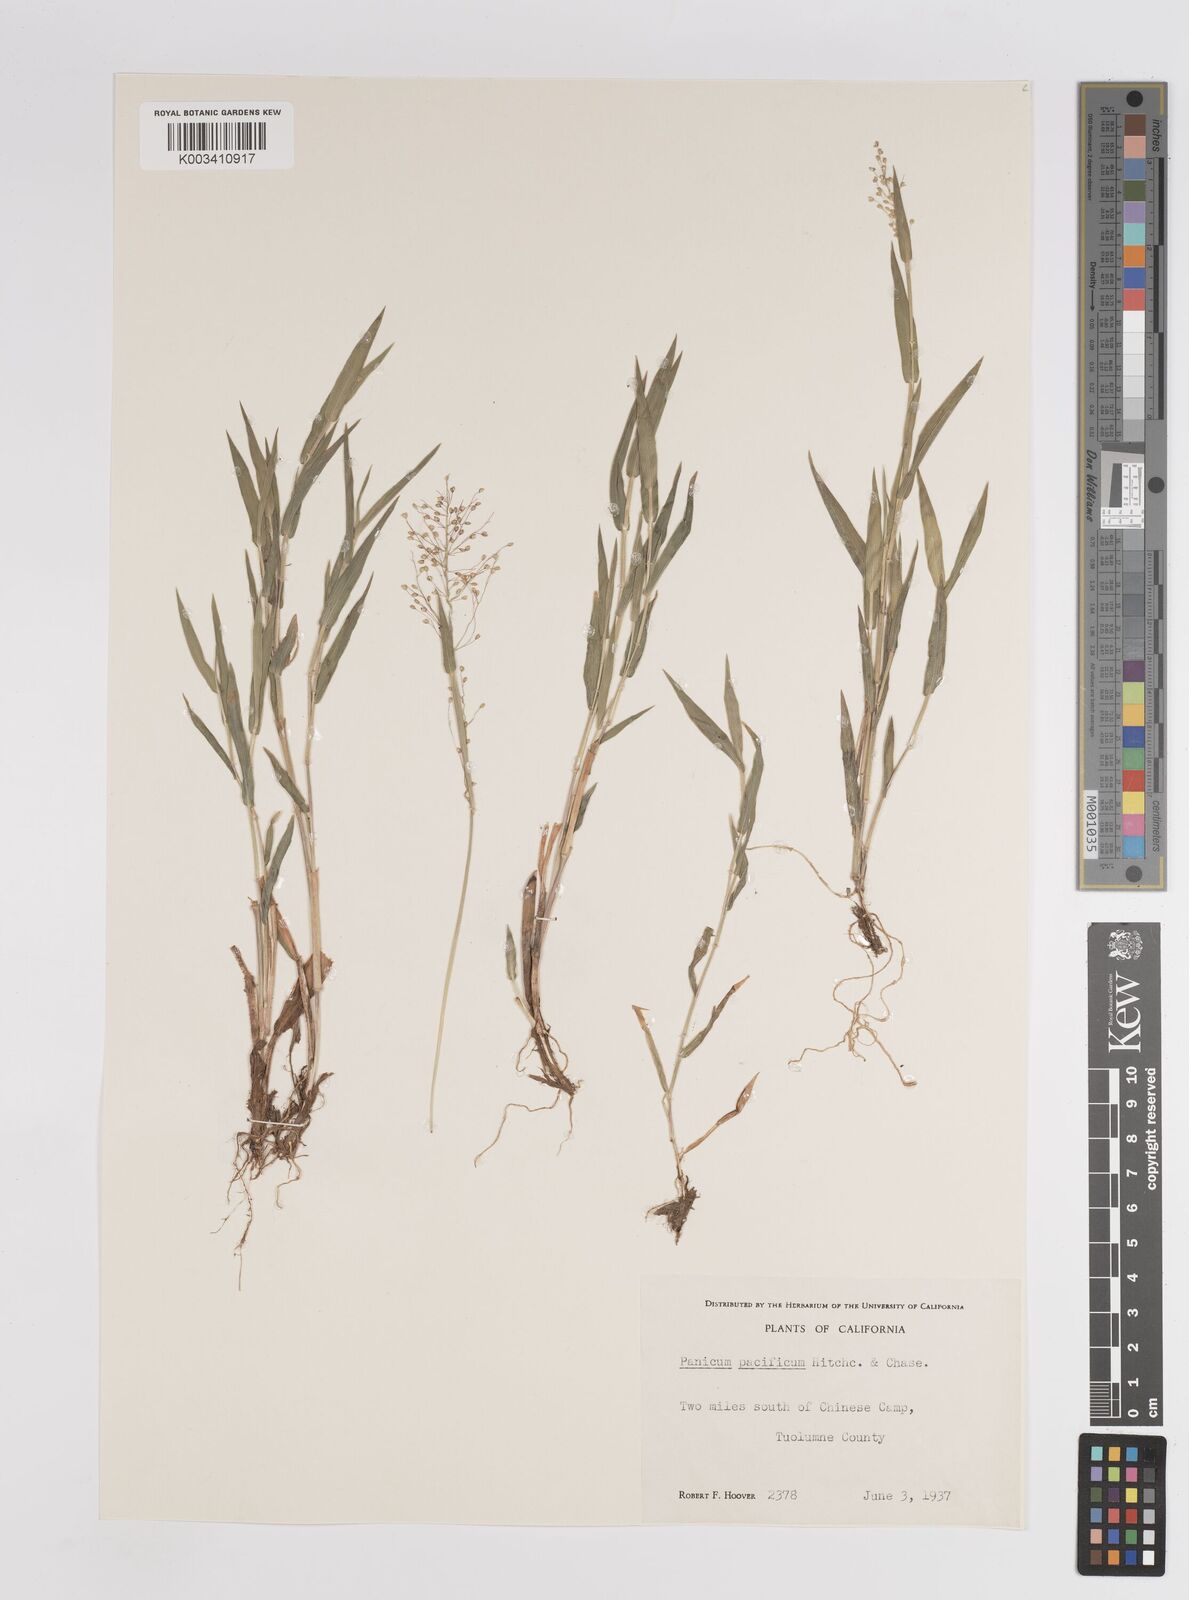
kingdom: Plantae
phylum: Tracheophyta
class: Liliopsida
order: Poales
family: Poaceae
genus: Dichanthelium
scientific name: Dichanthelium implicatum
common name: Slender-stemmed panicgrass
